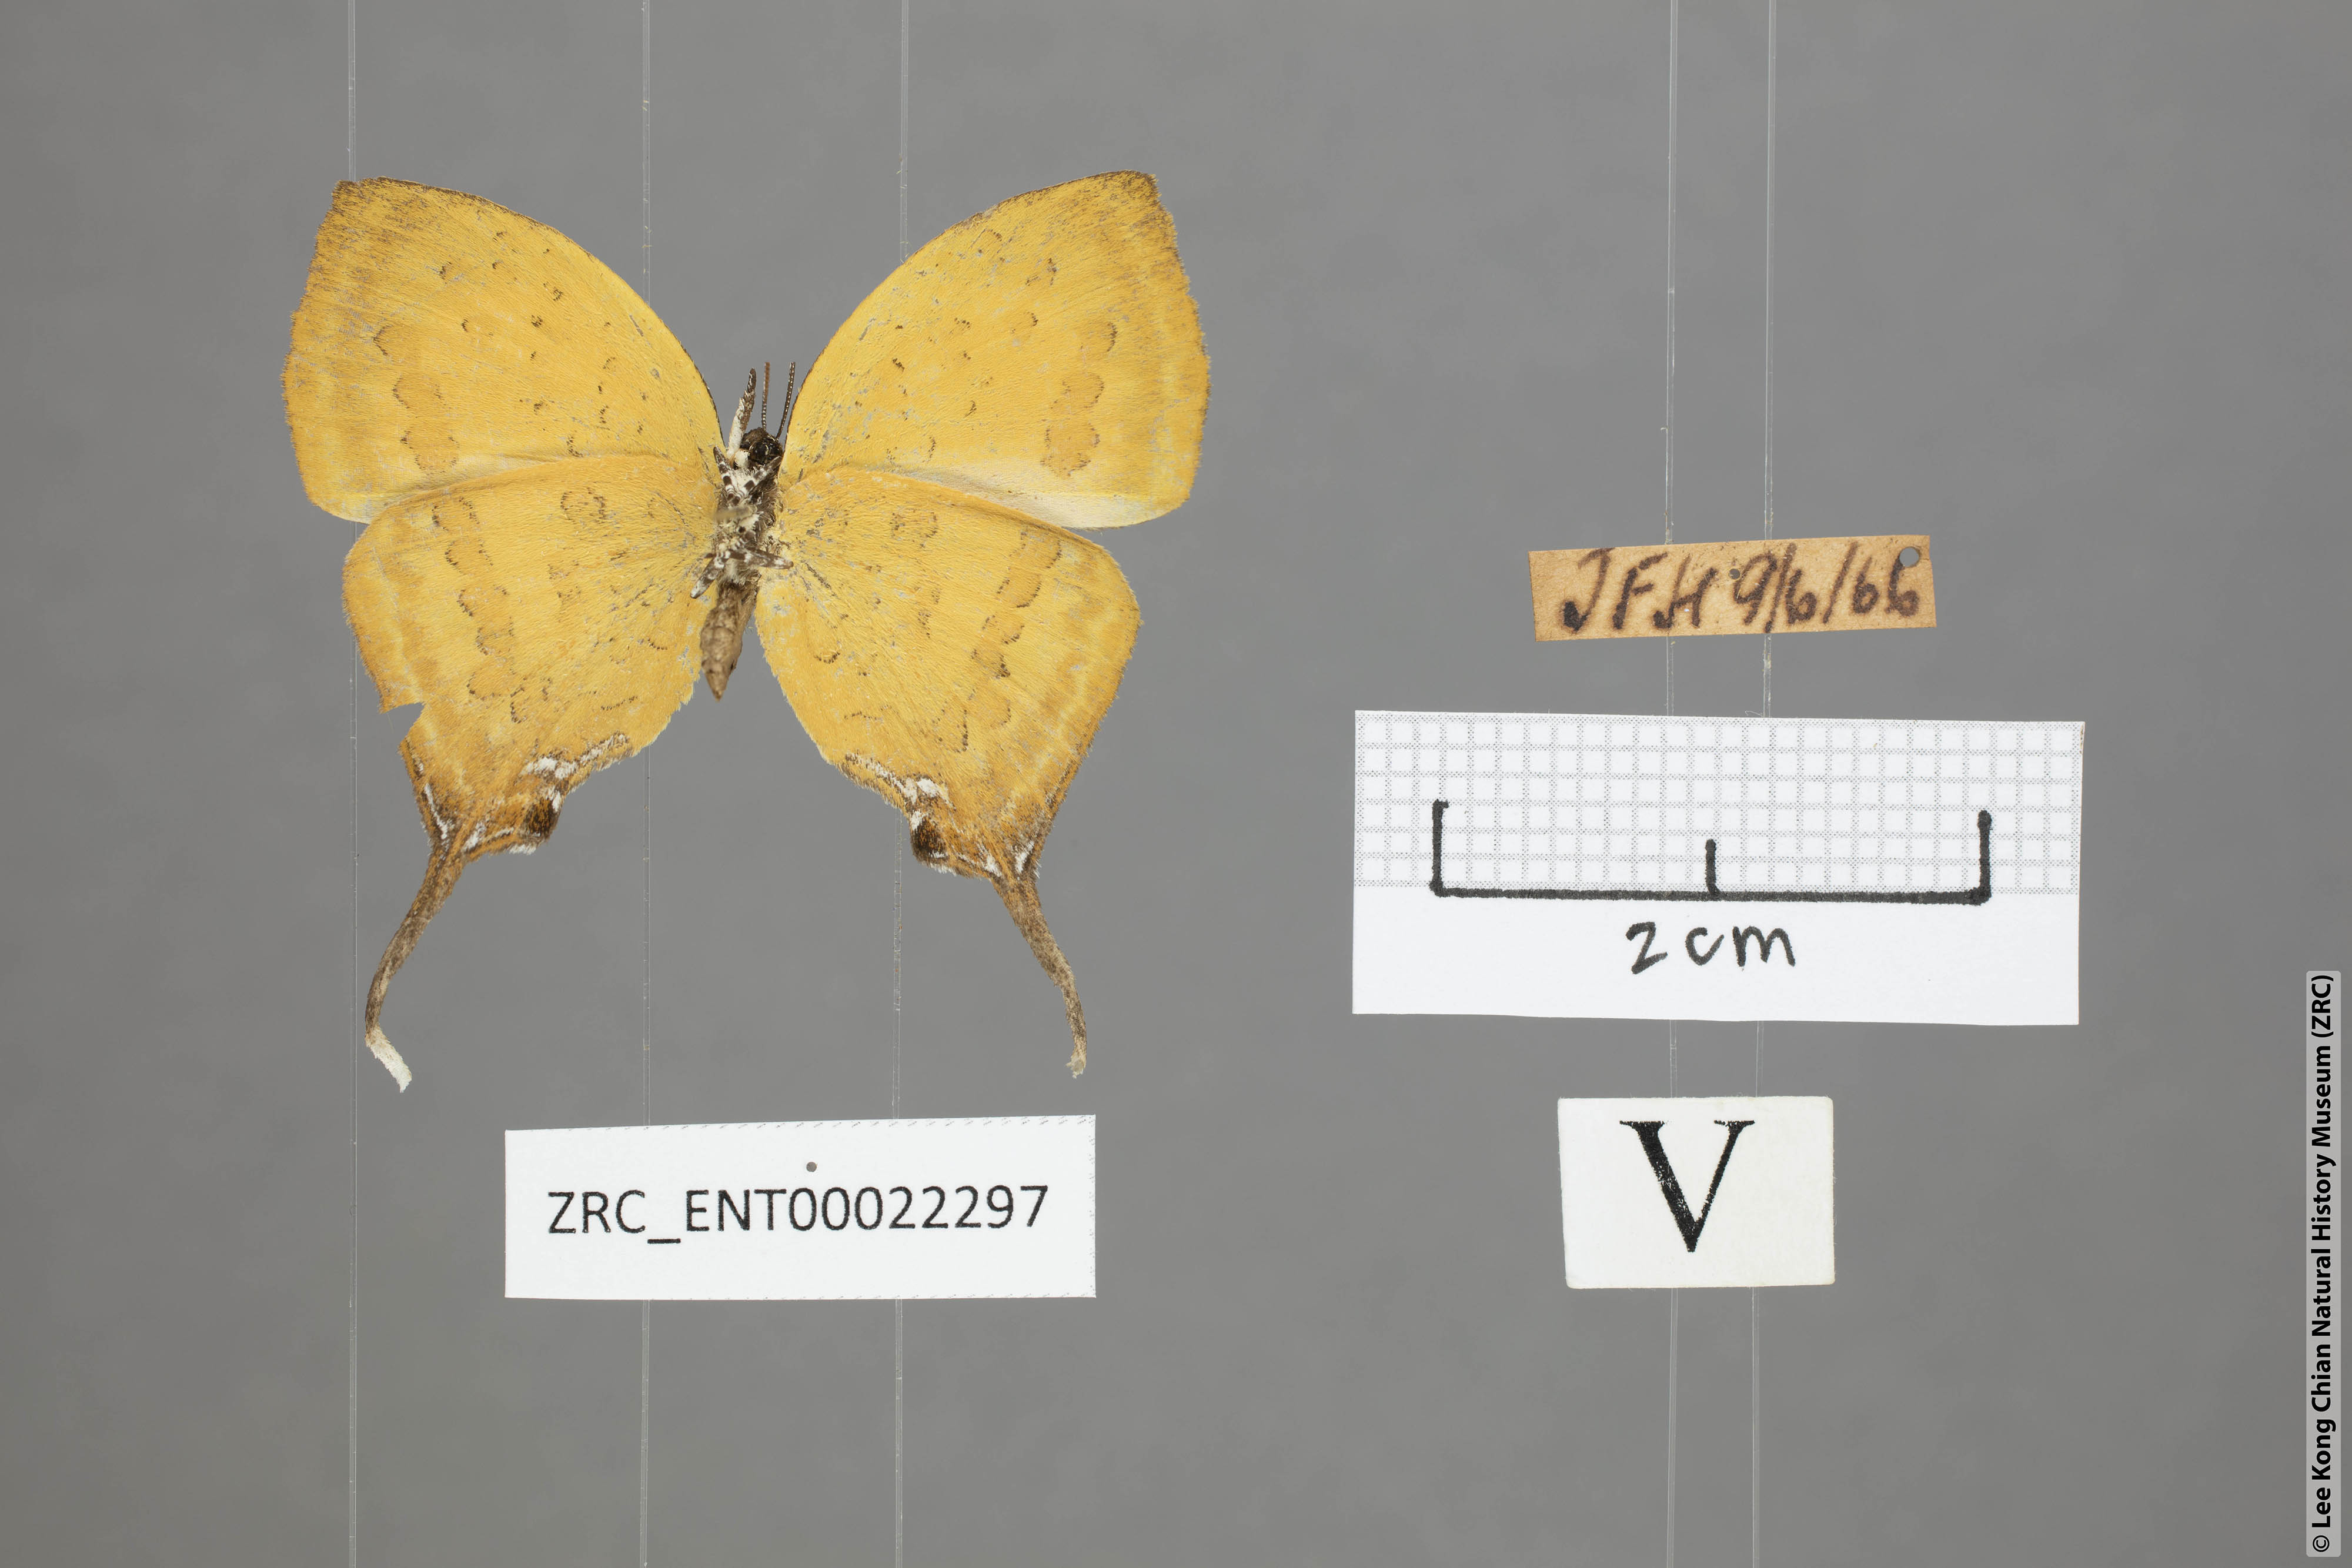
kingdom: Animalia
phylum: Arthropoda
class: Insecta
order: Lepidoptera
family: Lycaenidae
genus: Yasoda
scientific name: Yasoda pita
